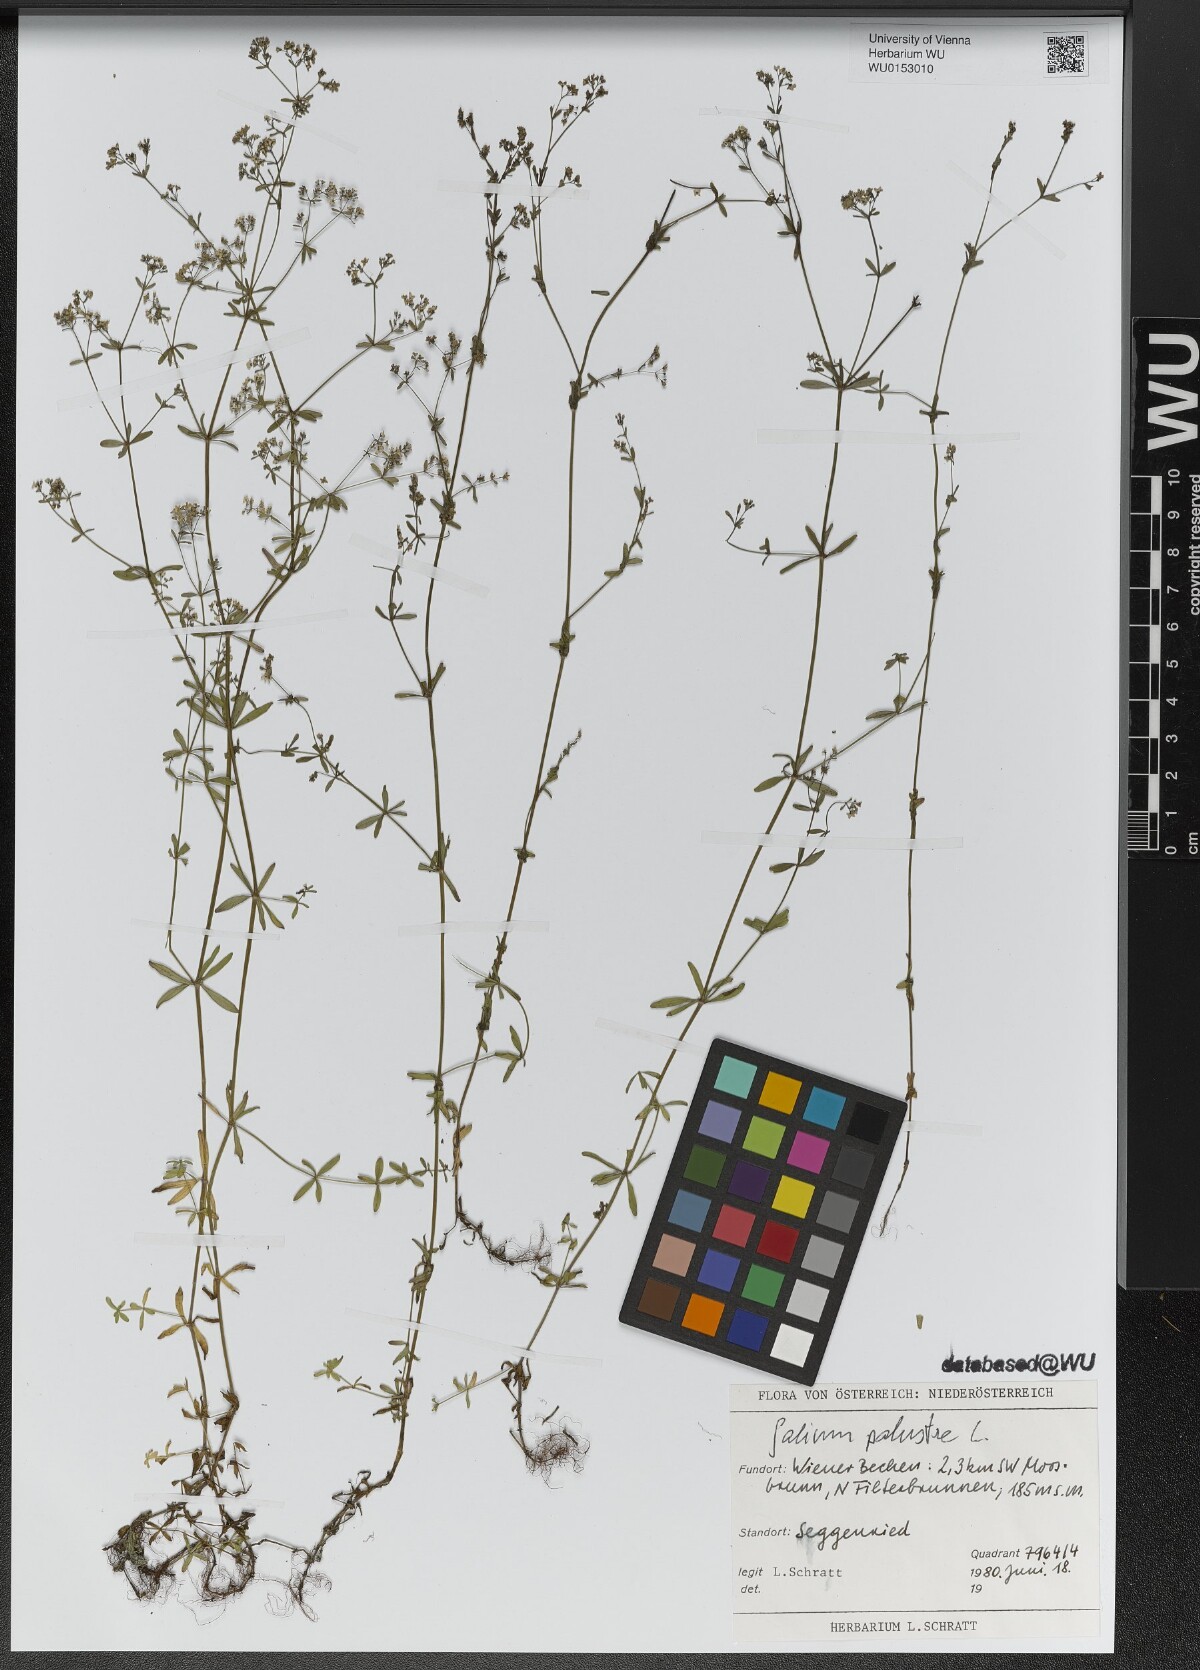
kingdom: Plantae
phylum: Tracheophyta
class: Magnoliopsida
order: Gentianales
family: Rubiaceae
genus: Galium
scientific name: Galium palustre
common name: Common marsh-bedstraw
